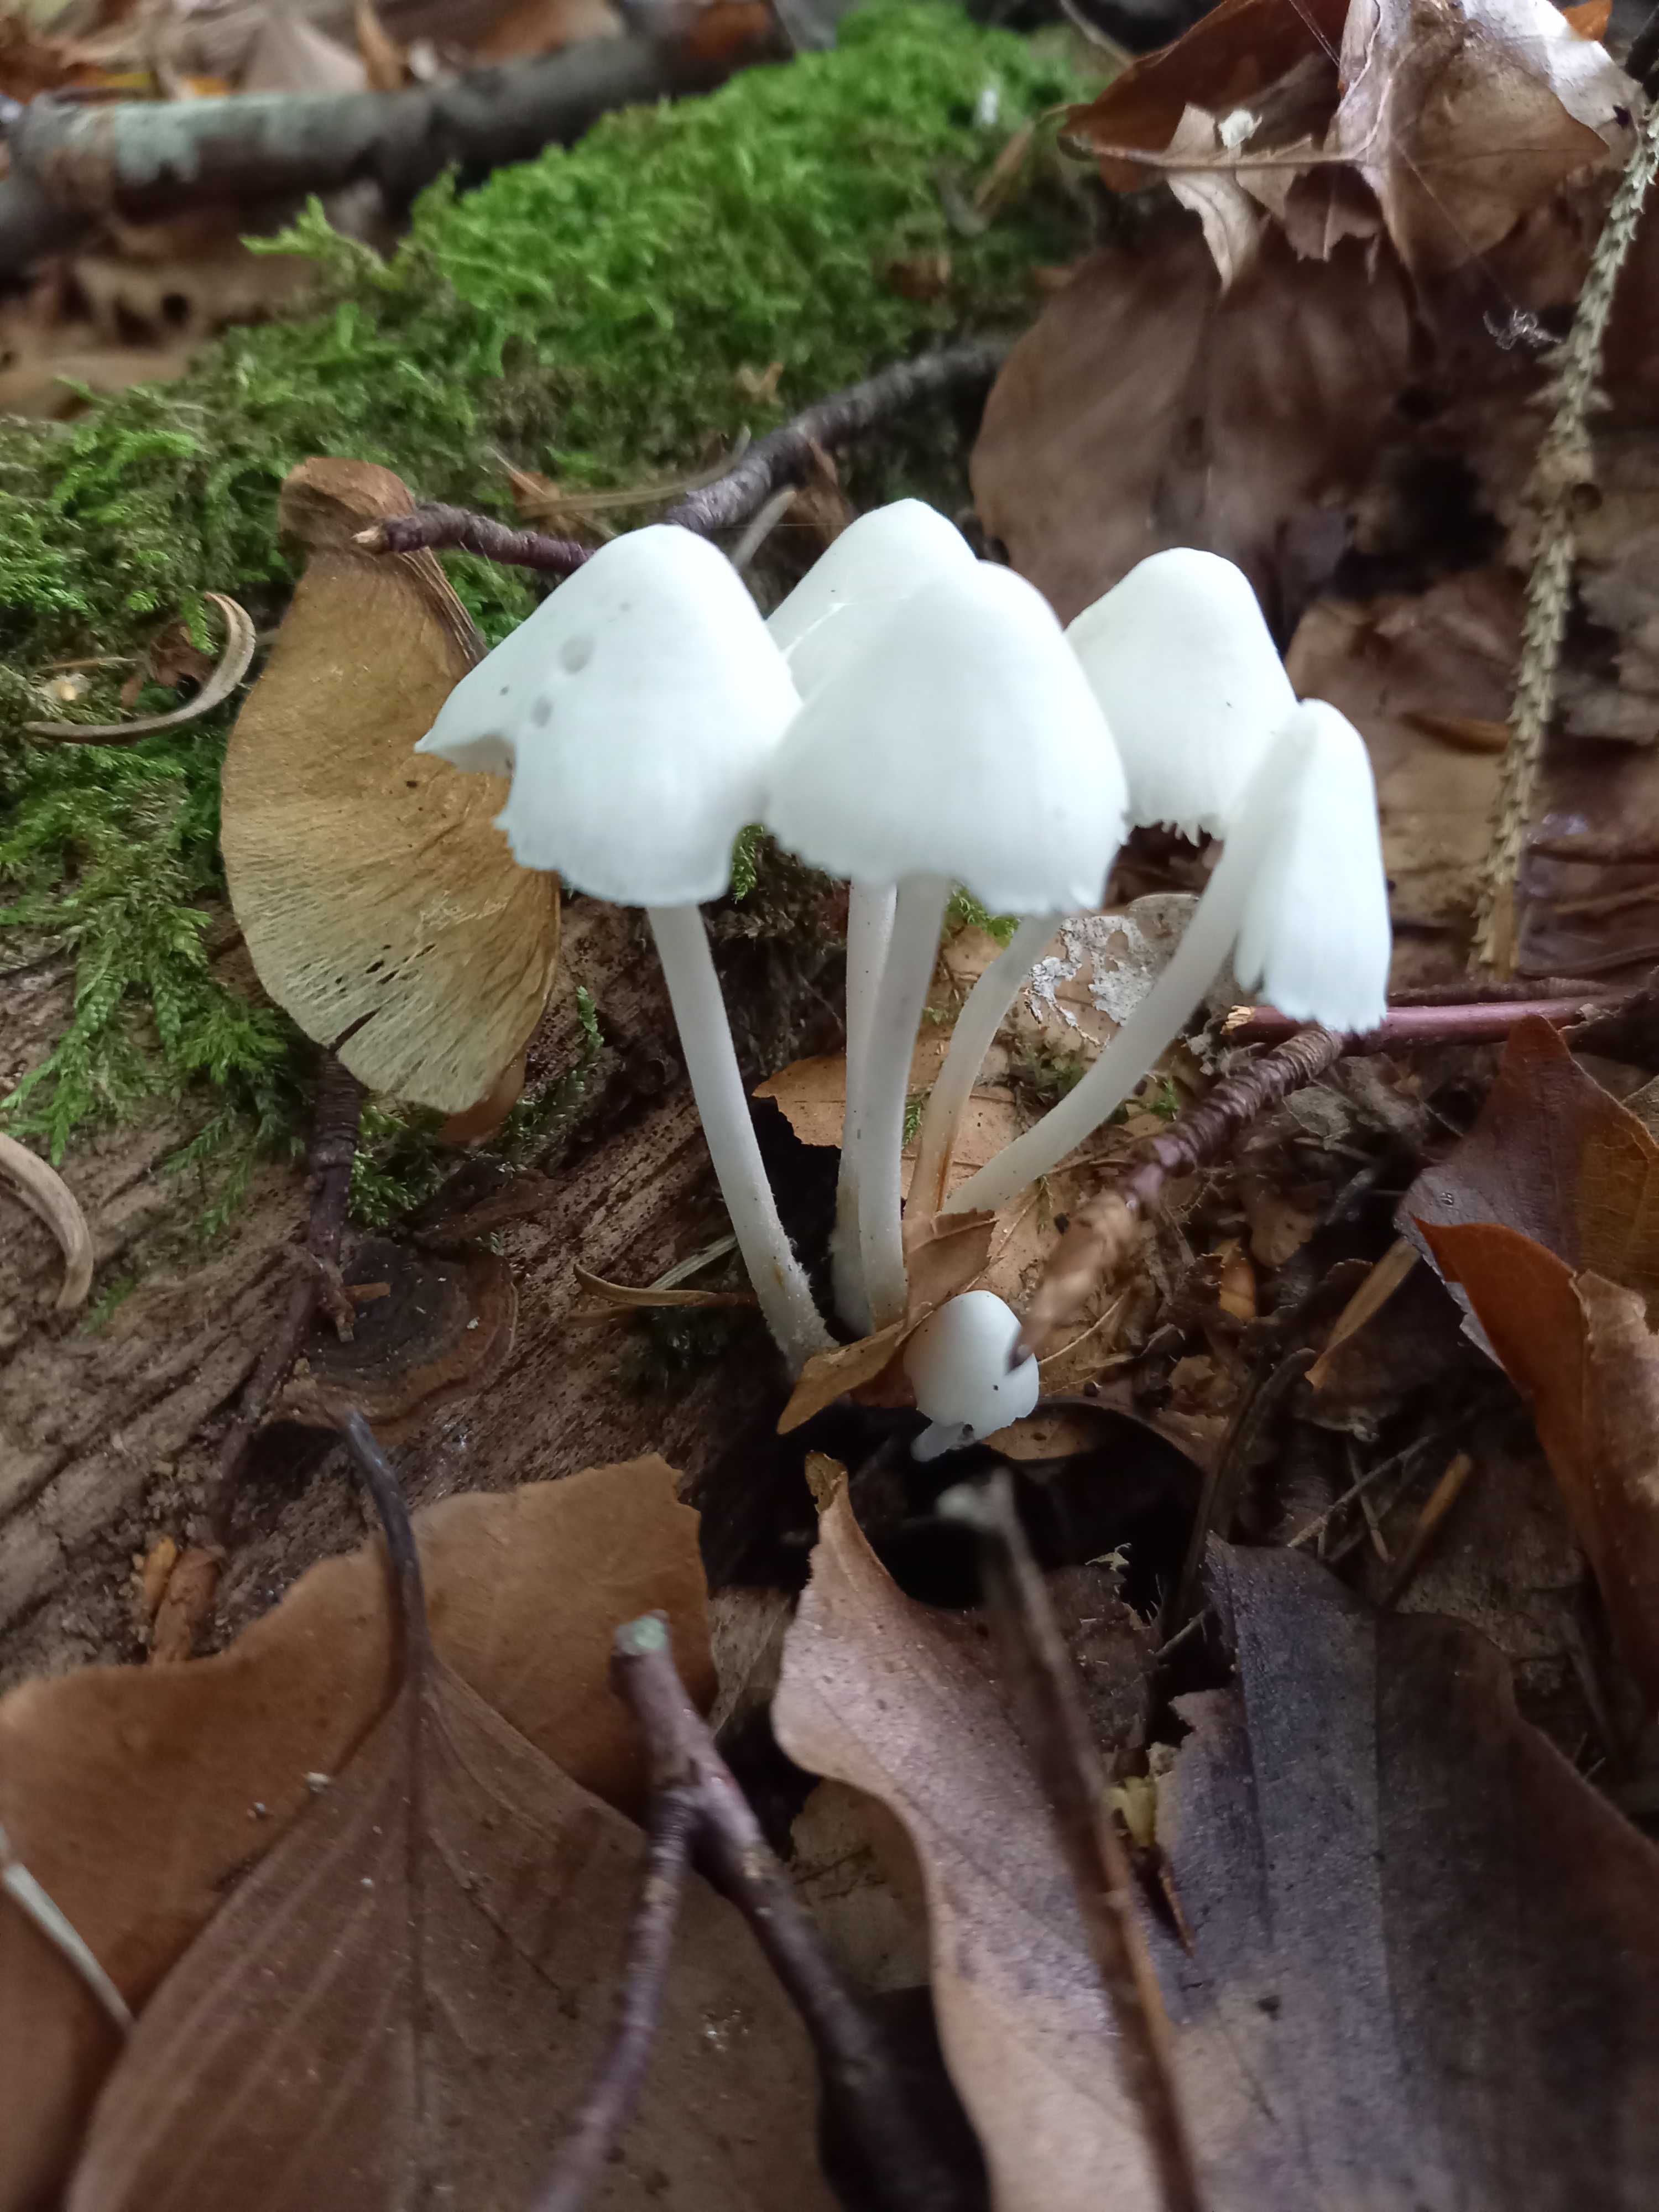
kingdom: Fungi
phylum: Basidiomycota
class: Agaricomycetes
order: Agaricales
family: Mycenaceae
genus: Mycena
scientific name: Mycena inclinata
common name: Clustered bonnet
